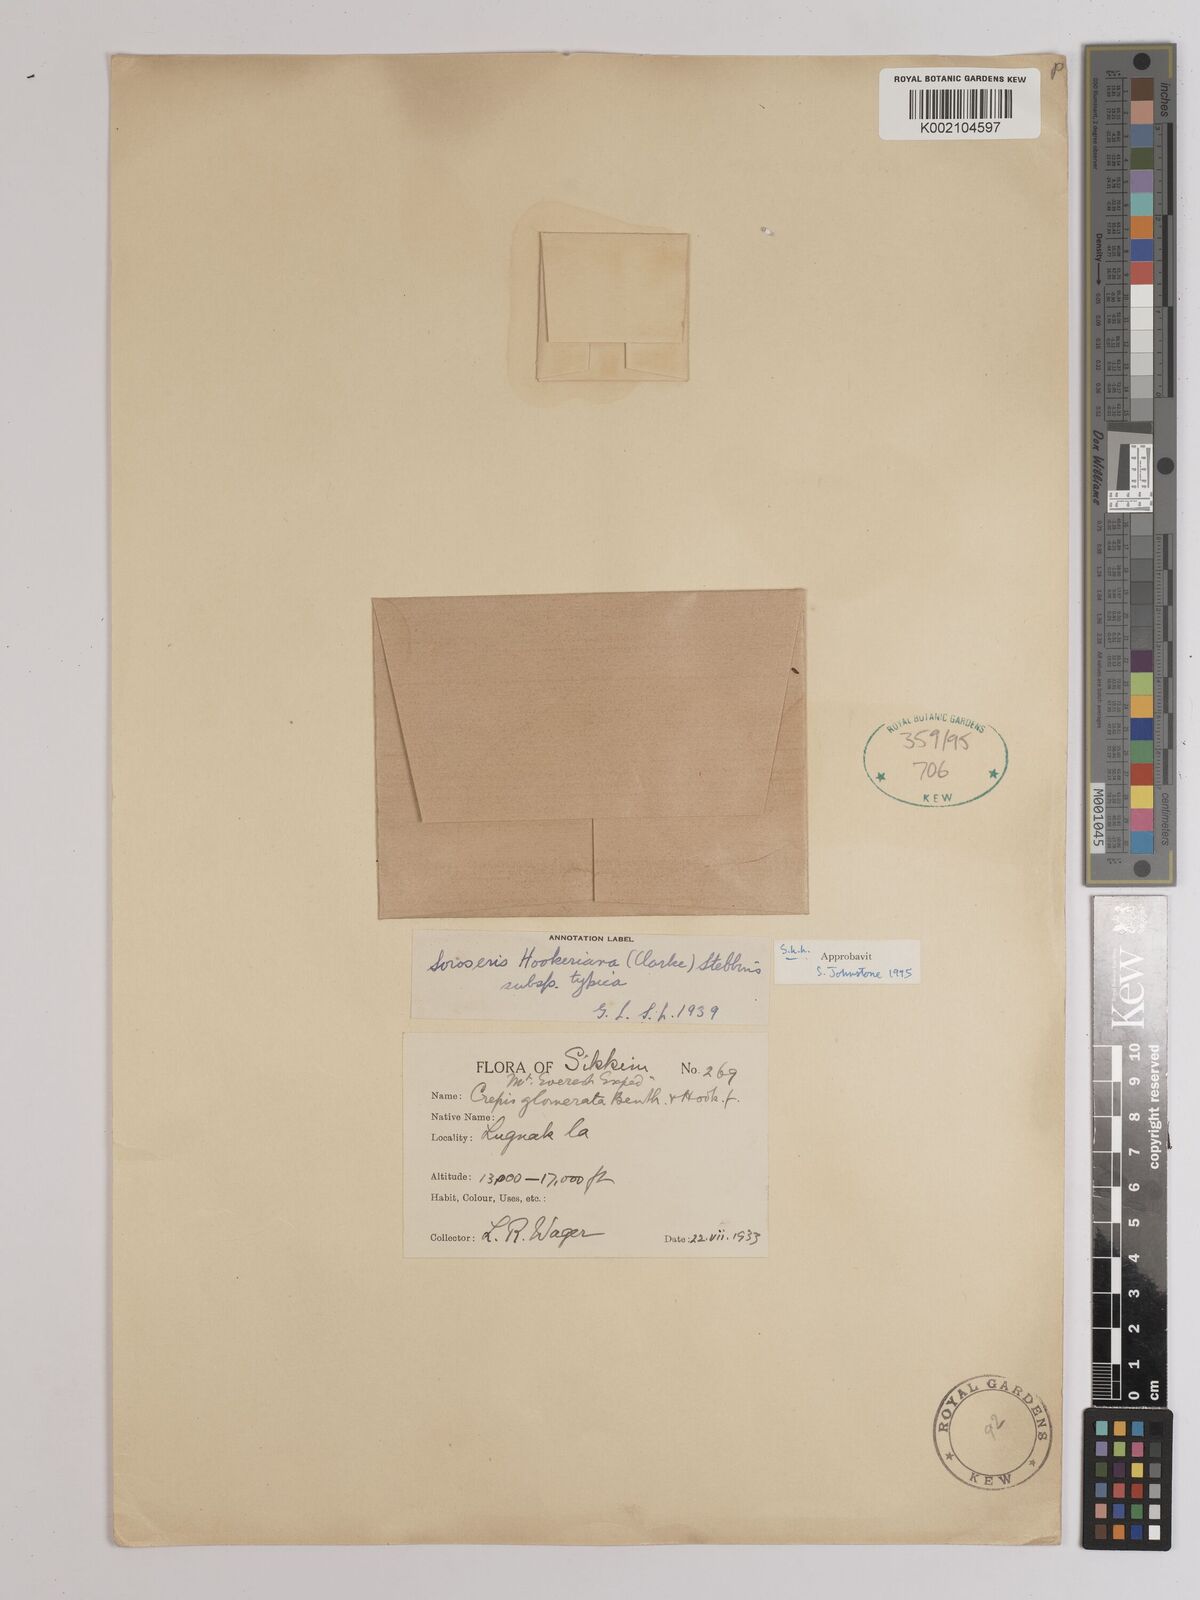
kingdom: Plantae
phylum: Tracheophyta
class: Magnoliopsida
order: Asterales
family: Asteraceae
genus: Soroseris
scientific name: Soroseris hookeriana
